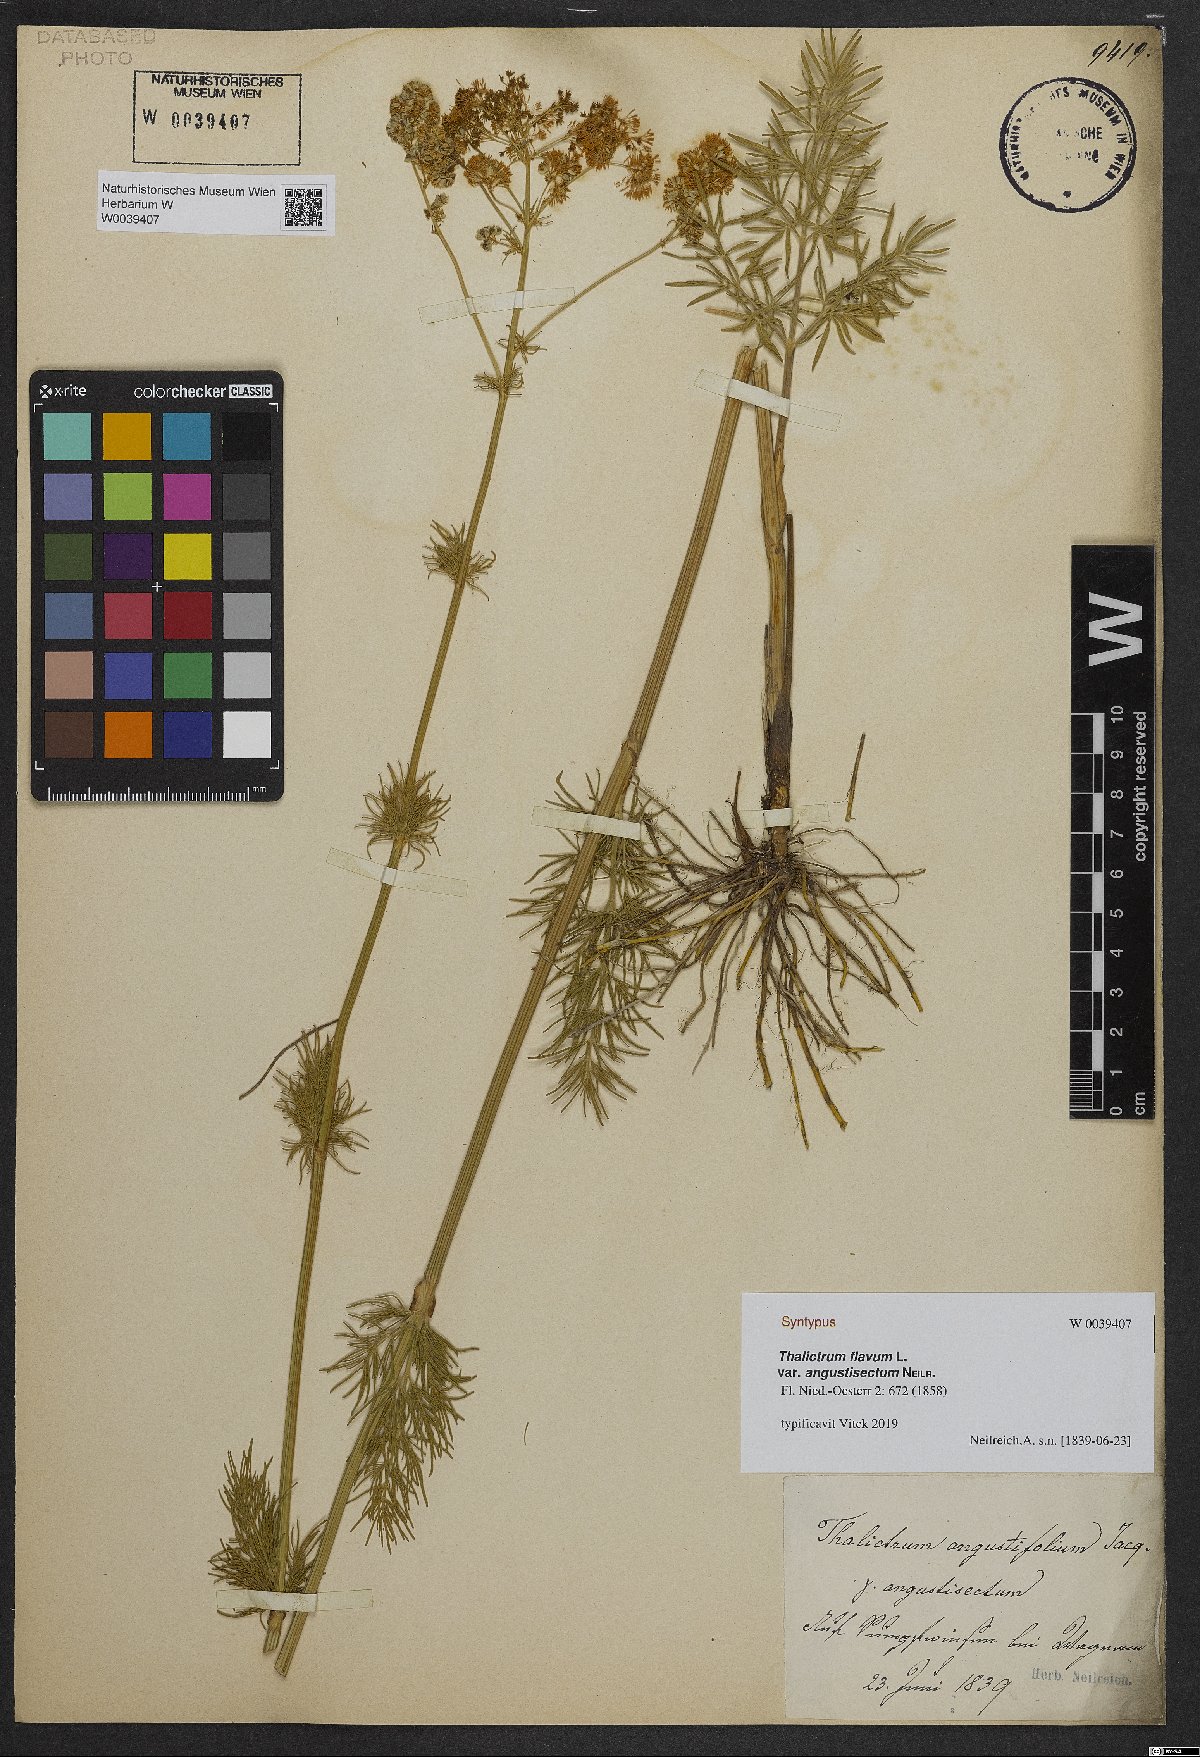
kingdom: Plantae
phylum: Tracheophyta
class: Magnoliopsida
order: Ranunculales
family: Ranunculaceae
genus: Thalictrum
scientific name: Thalictrum lucidum
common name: Shining meadow-rue
